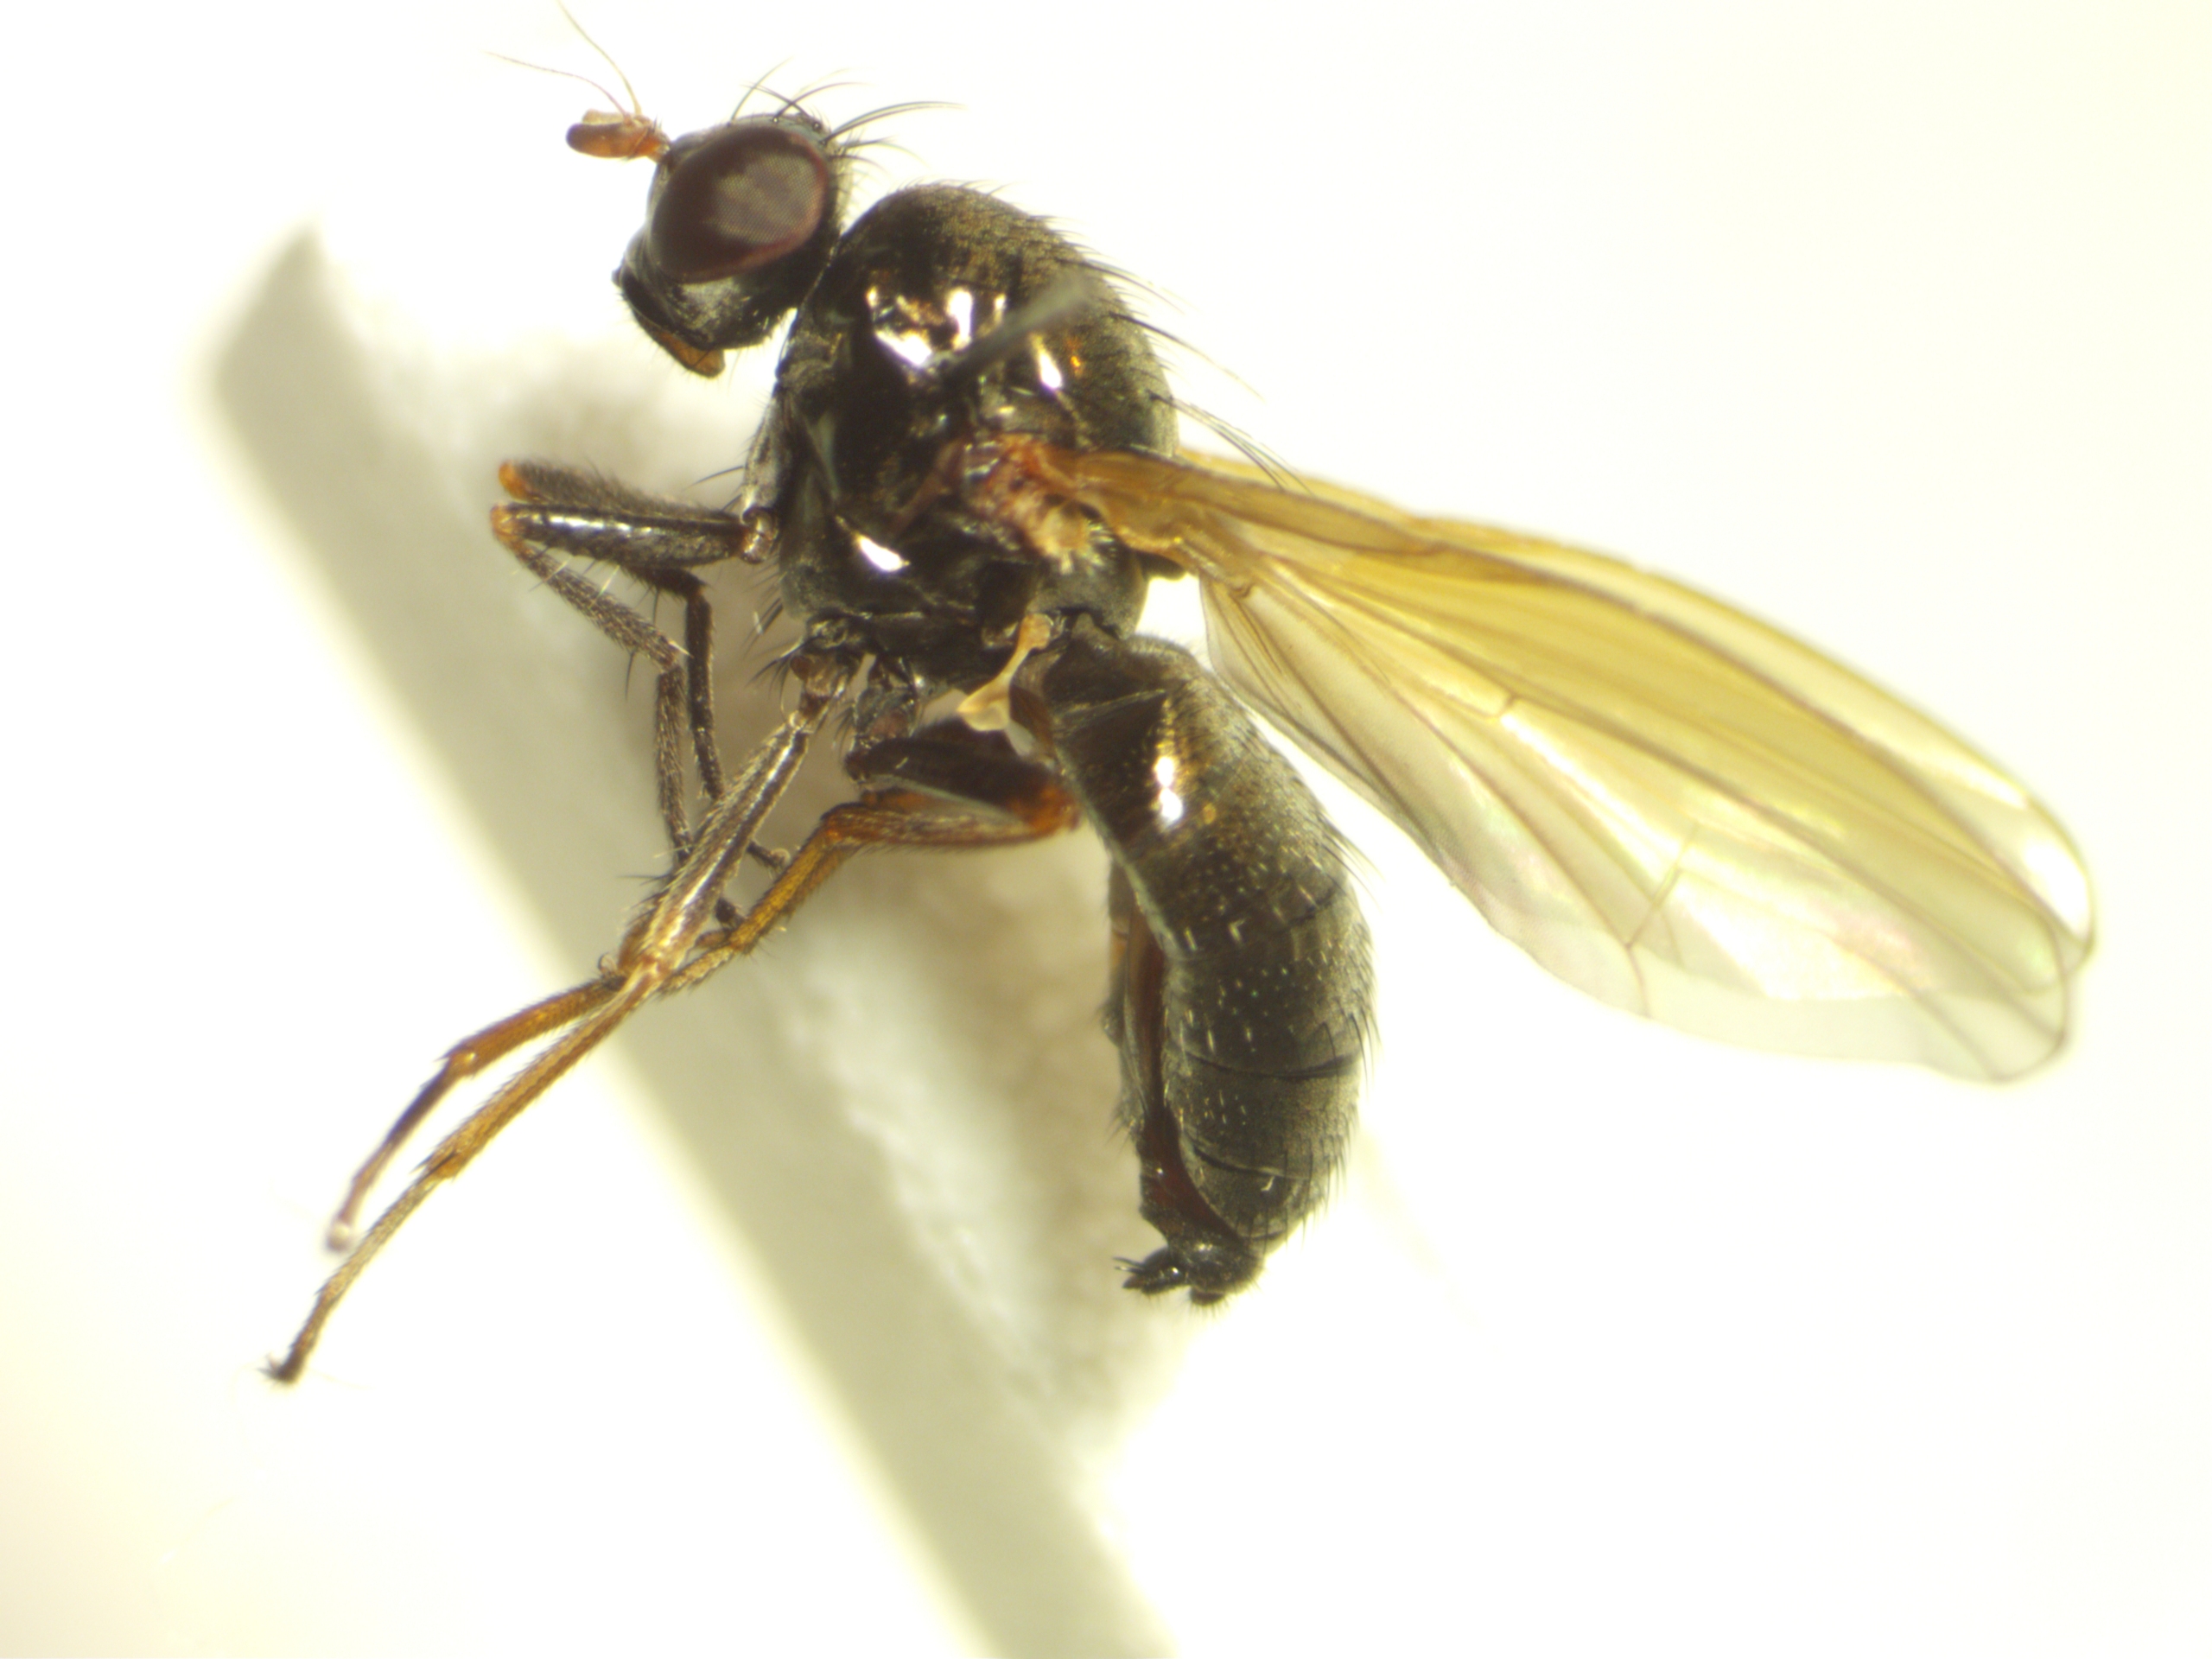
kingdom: Animalia
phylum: Arthropoda
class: Insecta
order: Diptera
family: Lauxaniidae
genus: Calliopum
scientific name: Calliopum aeneum
